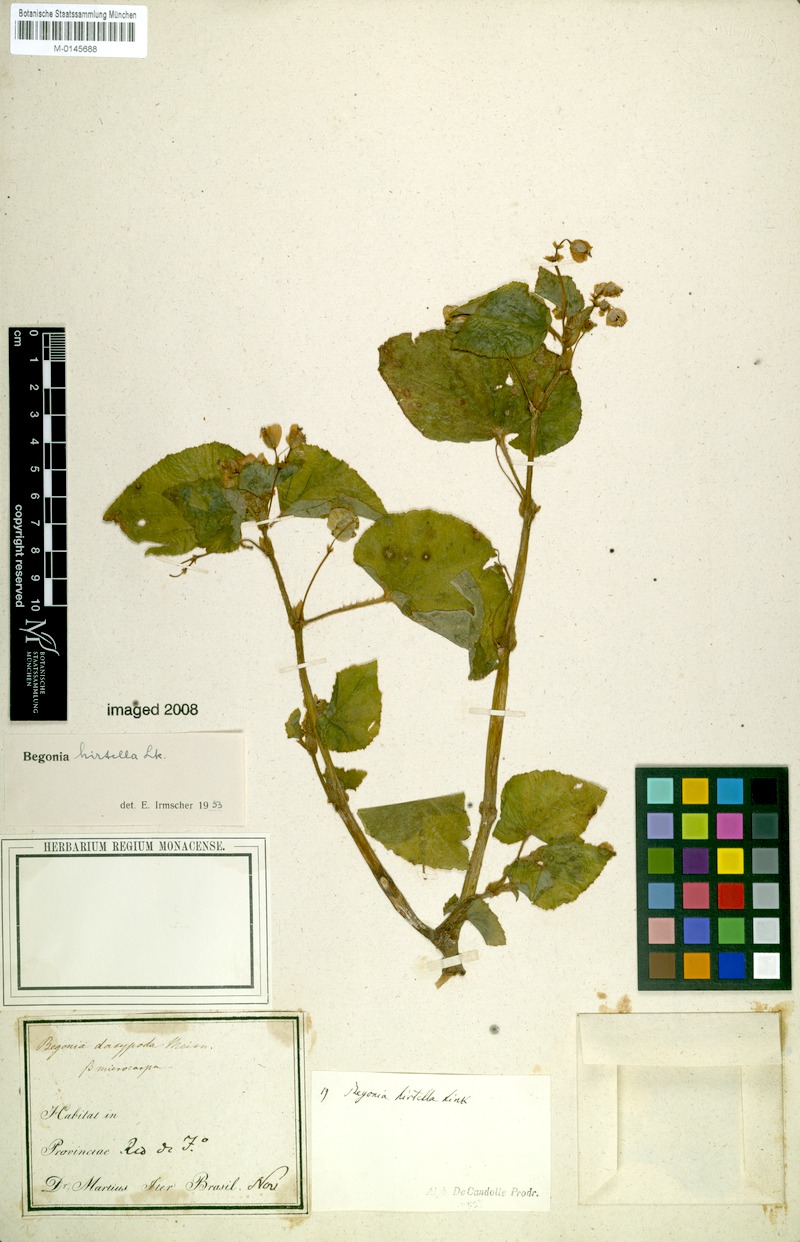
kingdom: Plantae
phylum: Tracheophyta
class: Magnoliopsida
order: Cucurbitales
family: Begoniaceae
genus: Begonia
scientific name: Begonia hirtella
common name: Brazilian begonia
